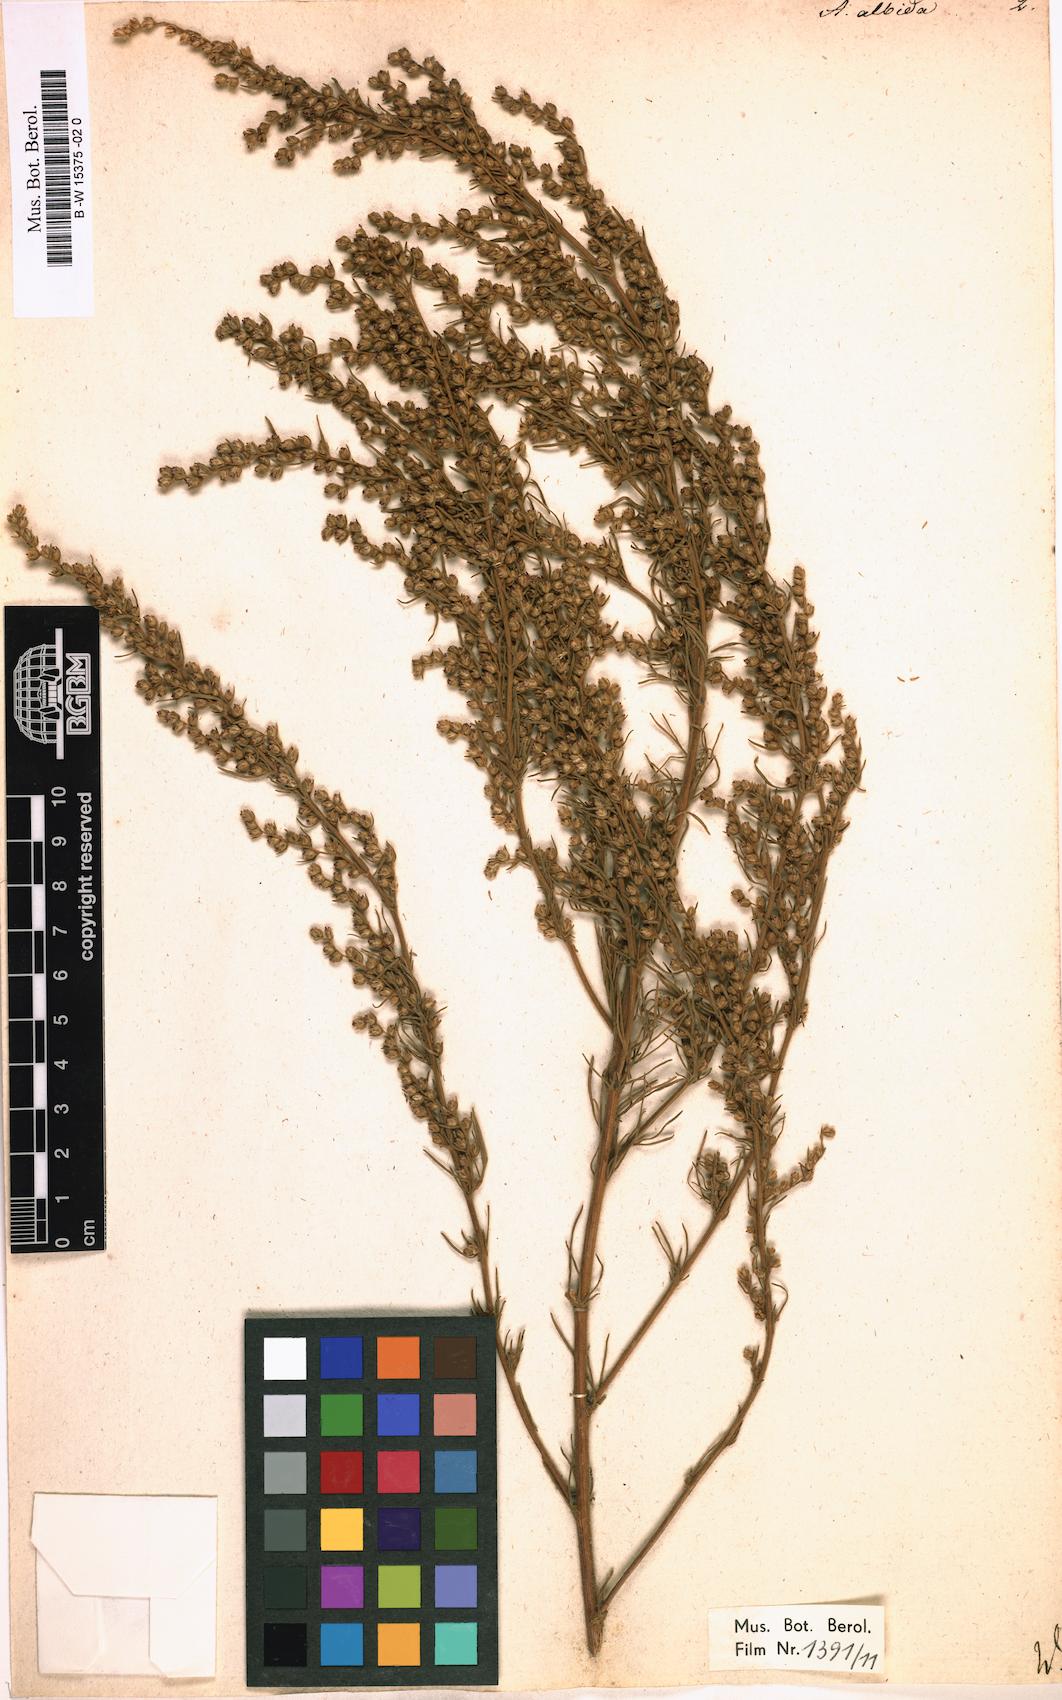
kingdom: Plantae
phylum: Tracheophyta
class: Magnoliopsida
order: Asterales
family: Asteraceae
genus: Artemisia
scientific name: Artemisia compacta
